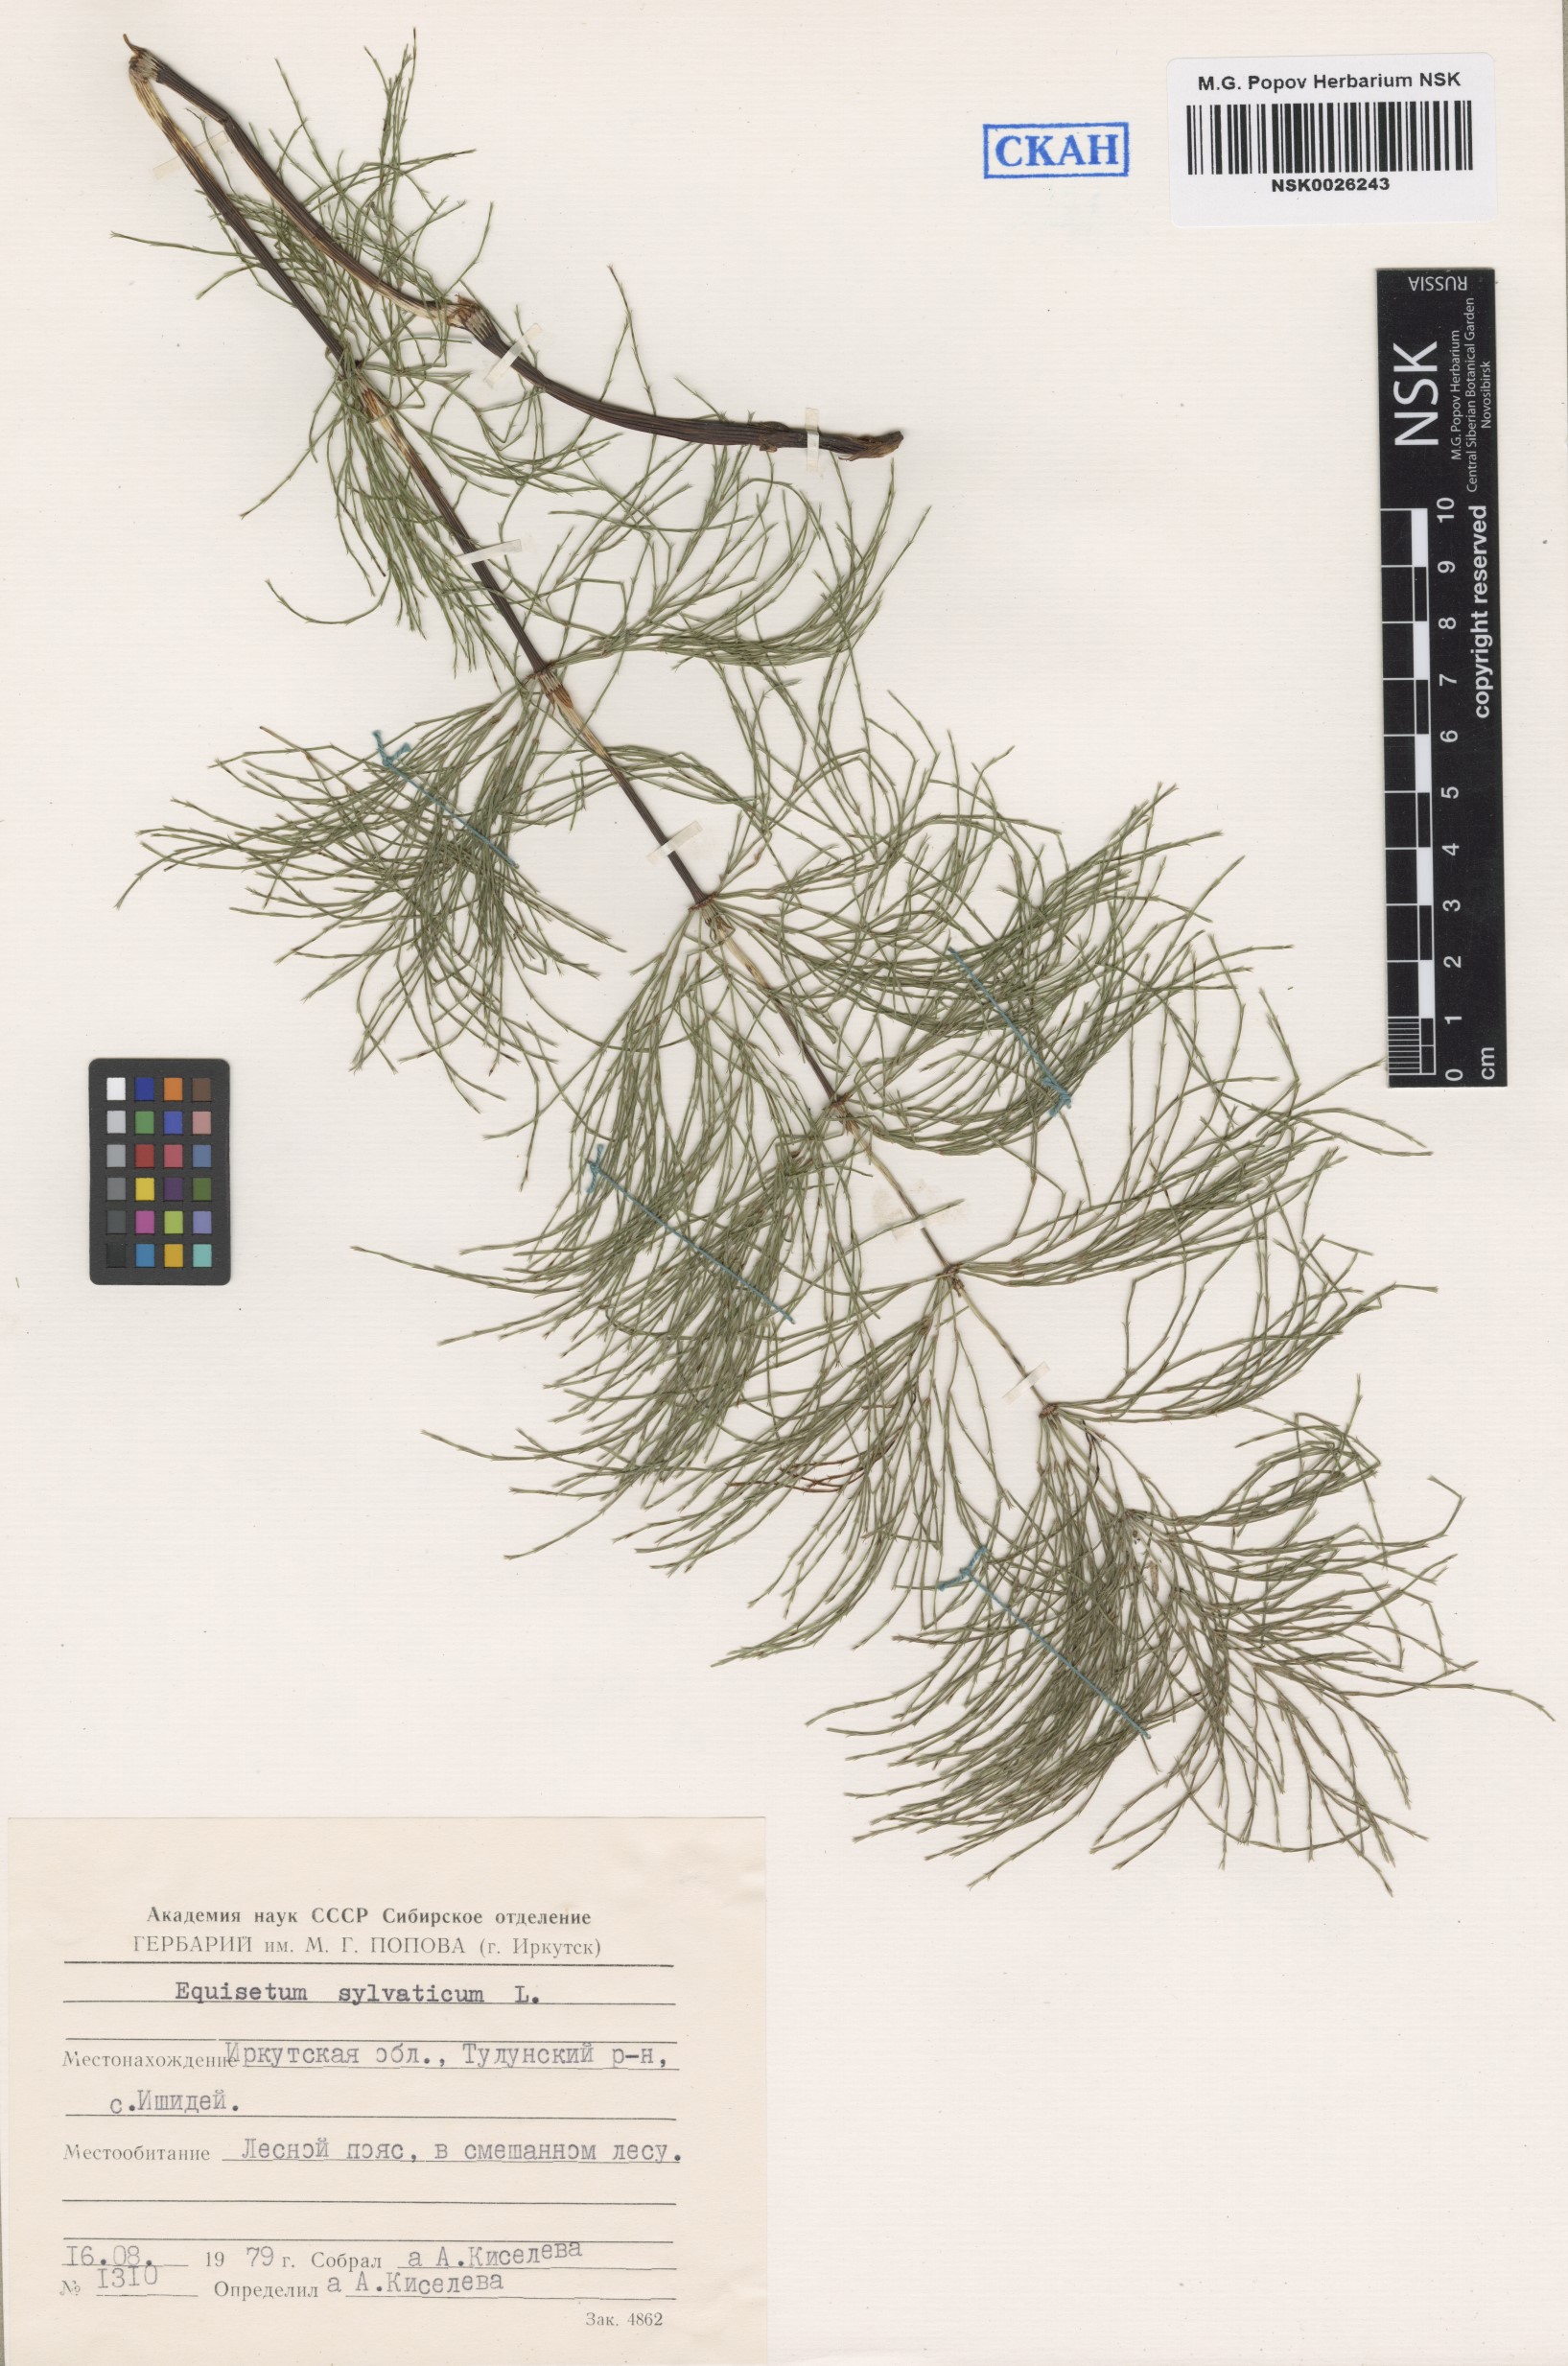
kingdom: Plantae
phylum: Tracheophyta
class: Polypodiopsida
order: Equisetales
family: Equisetaceae
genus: Equisetum
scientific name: Equisetum sylvaticum
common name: Wood horsetail
